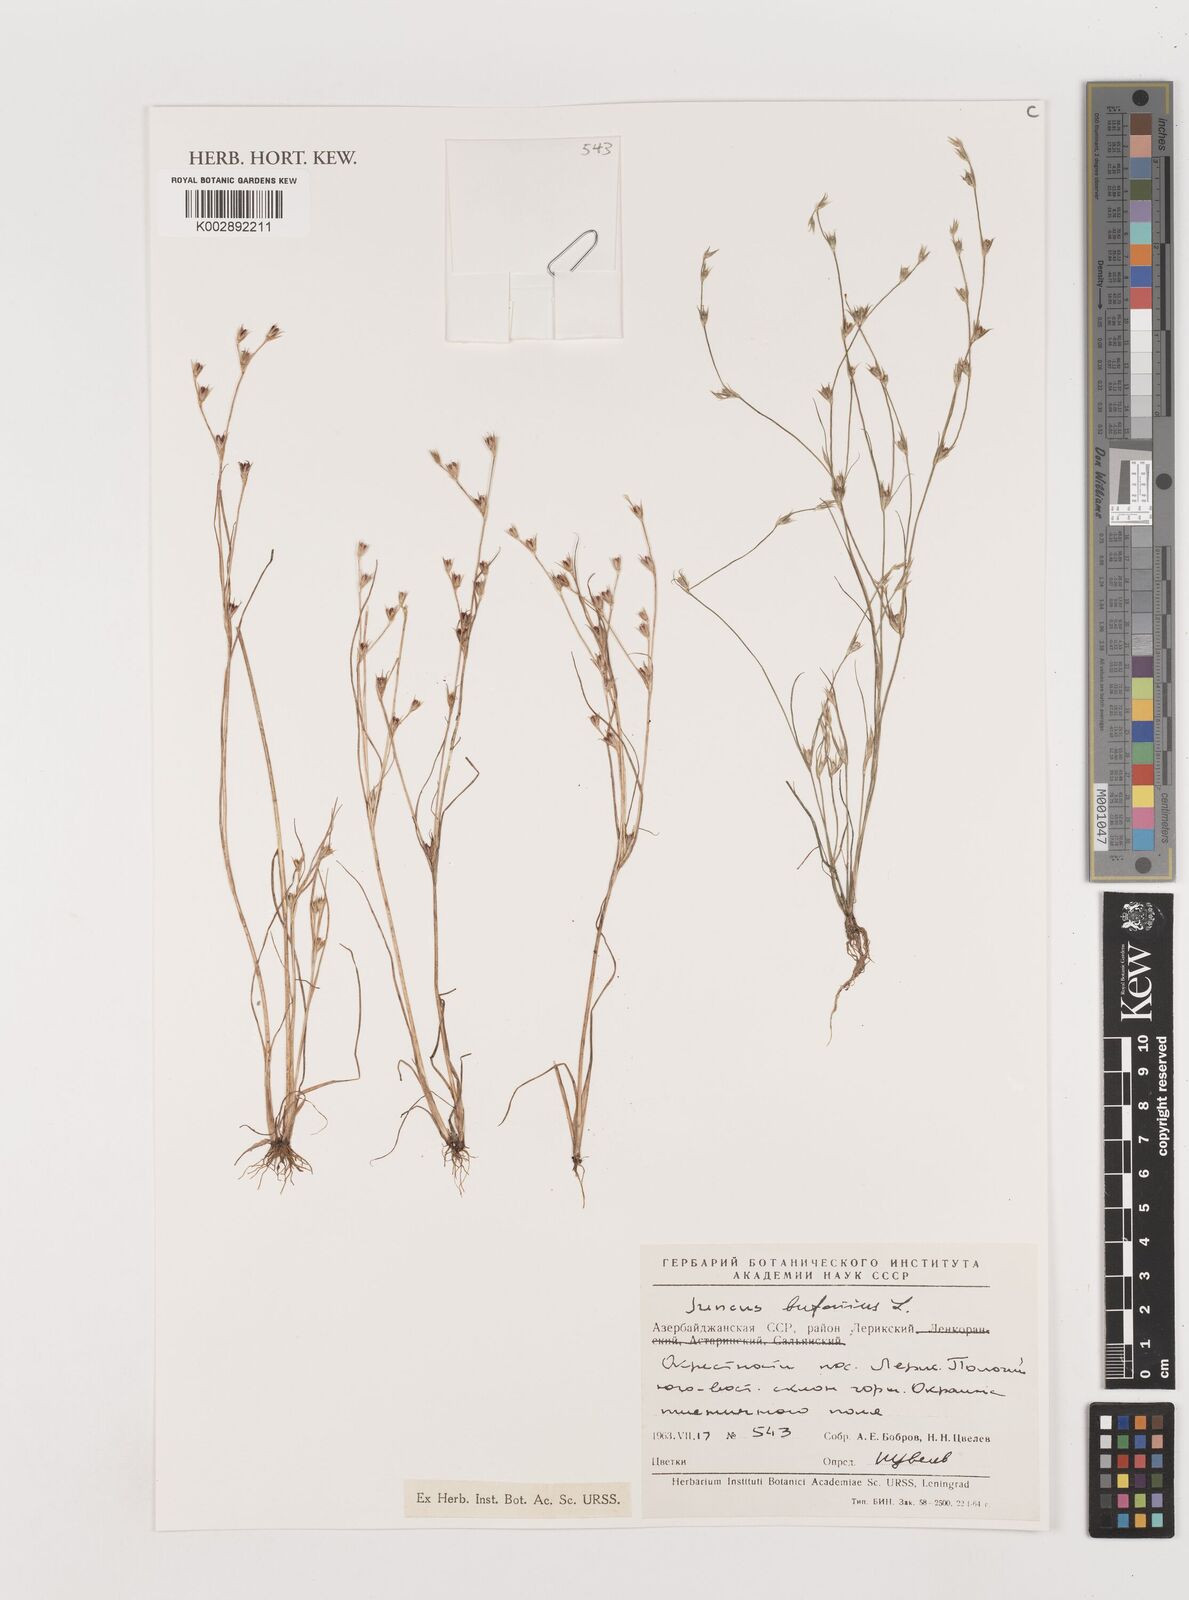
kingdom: Plantae
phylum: Tracheophyta
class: Liliopsida
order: Poales
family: Juncaceae
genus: Juncus
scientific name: Juncus bufonius
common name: Toad rush
